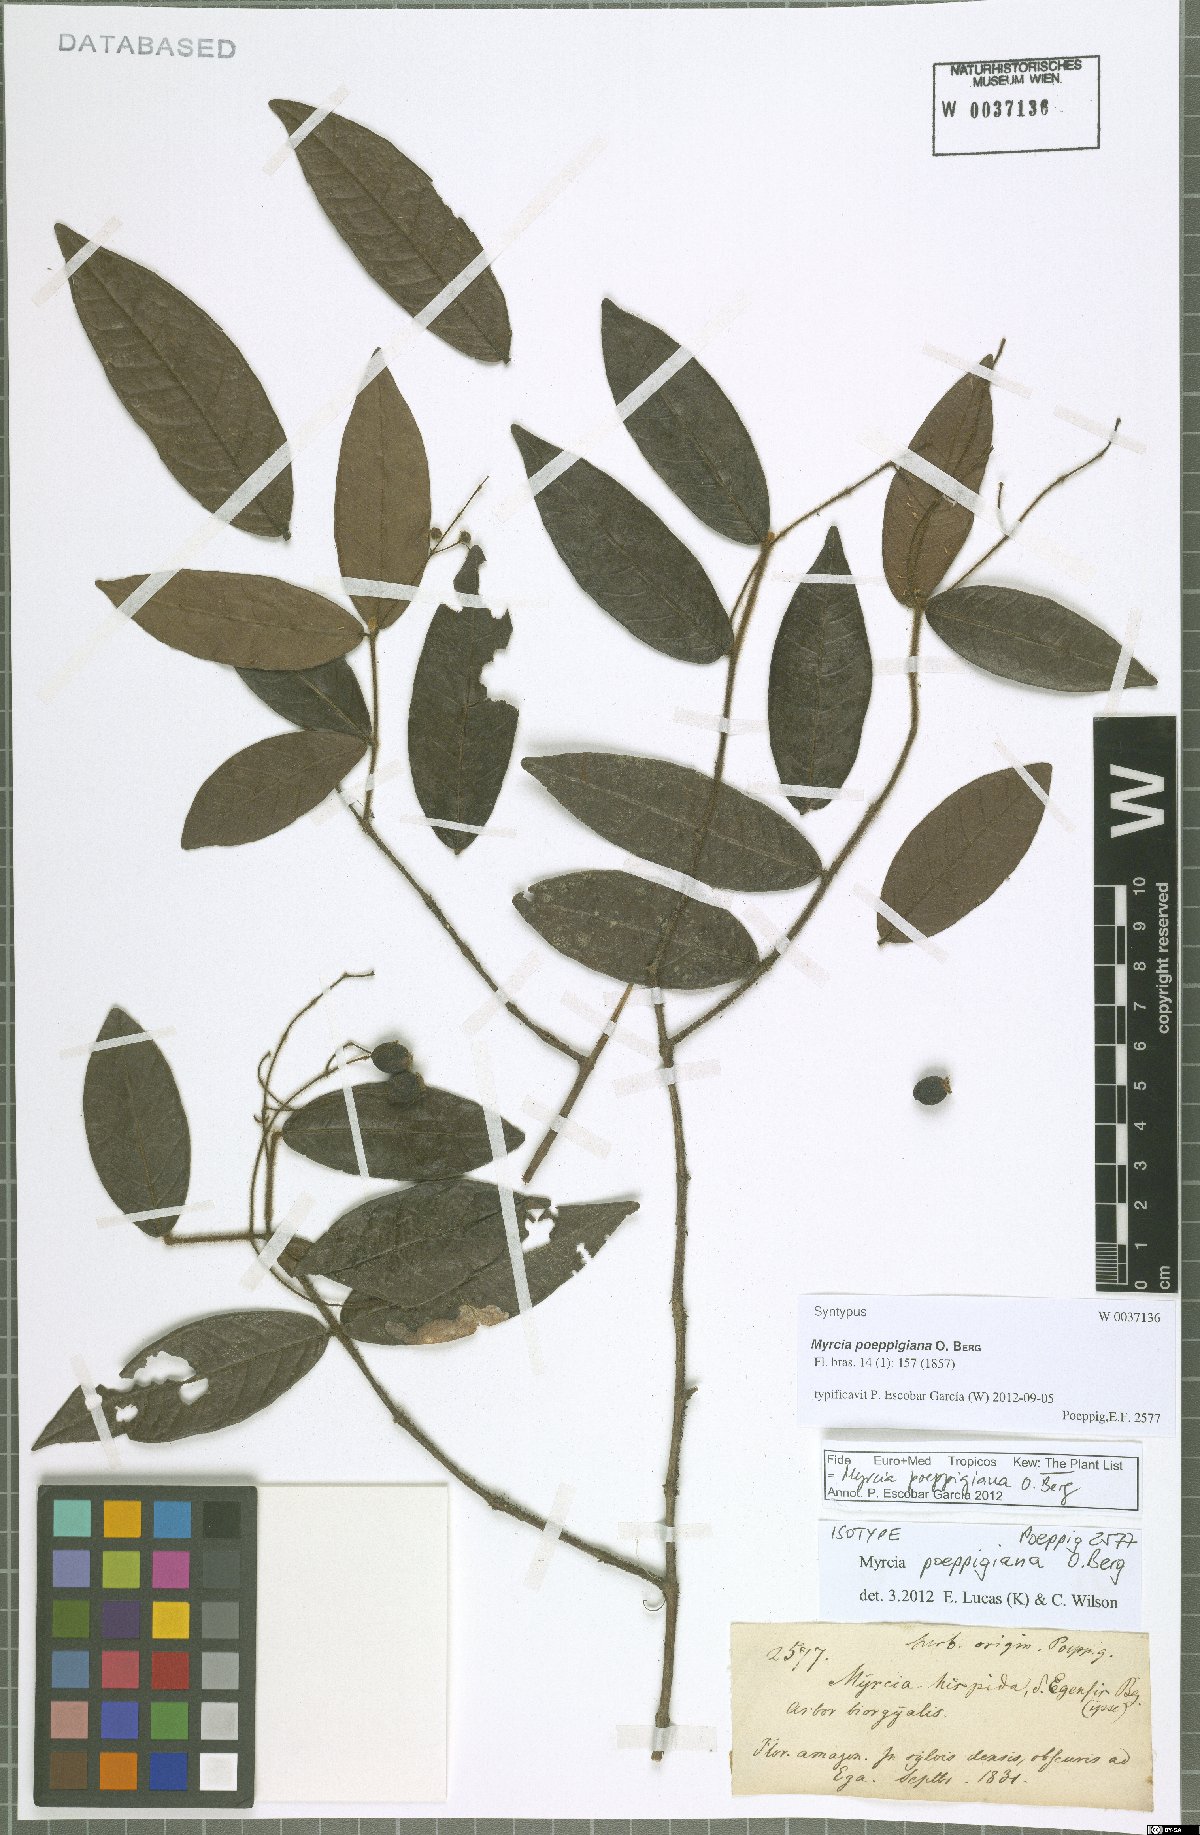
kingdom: Plantae
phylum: Tracheophyta
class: Magnoliopsida
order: Myrtales
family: Myrtaceae
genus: Myrcia
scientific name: Myrcia poeppigiana
